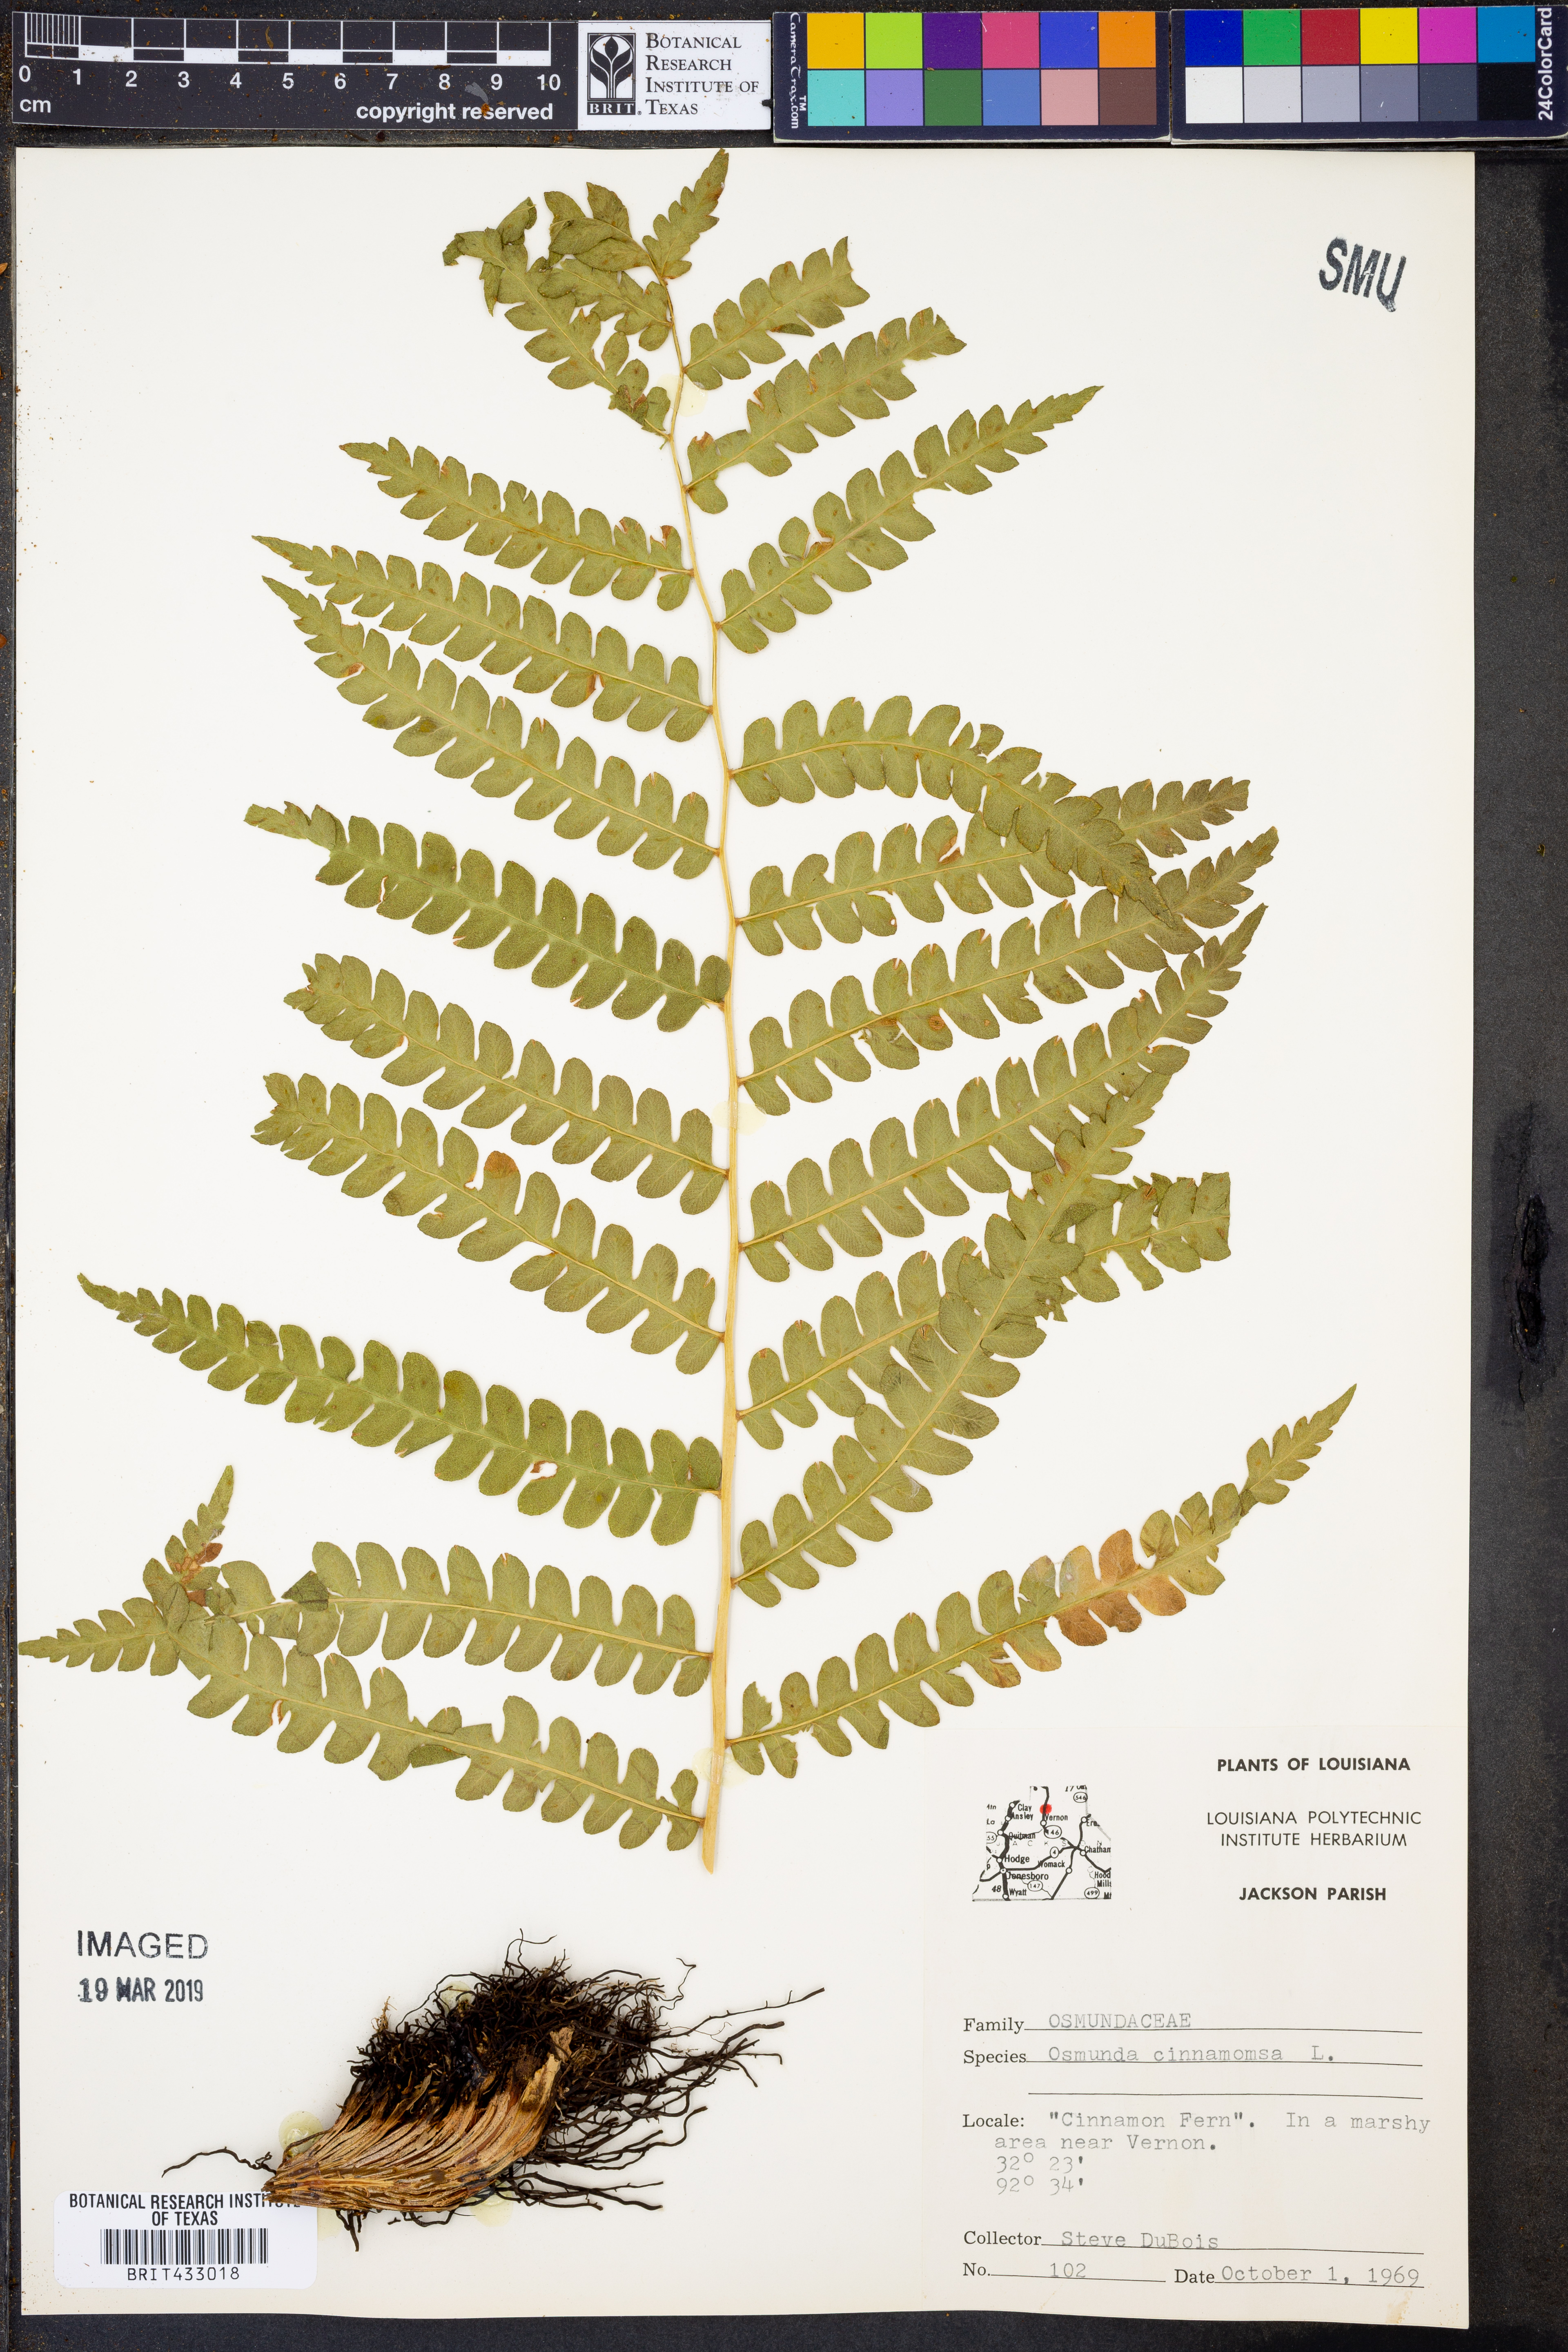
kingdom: Plantae
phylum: Tracheophyta
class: Polypodiopsida
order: Osmundales
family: Osmundaceae
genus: Osmundastrum
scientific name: Osmundastrum cinnamomeum
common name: Cinnamon fern
